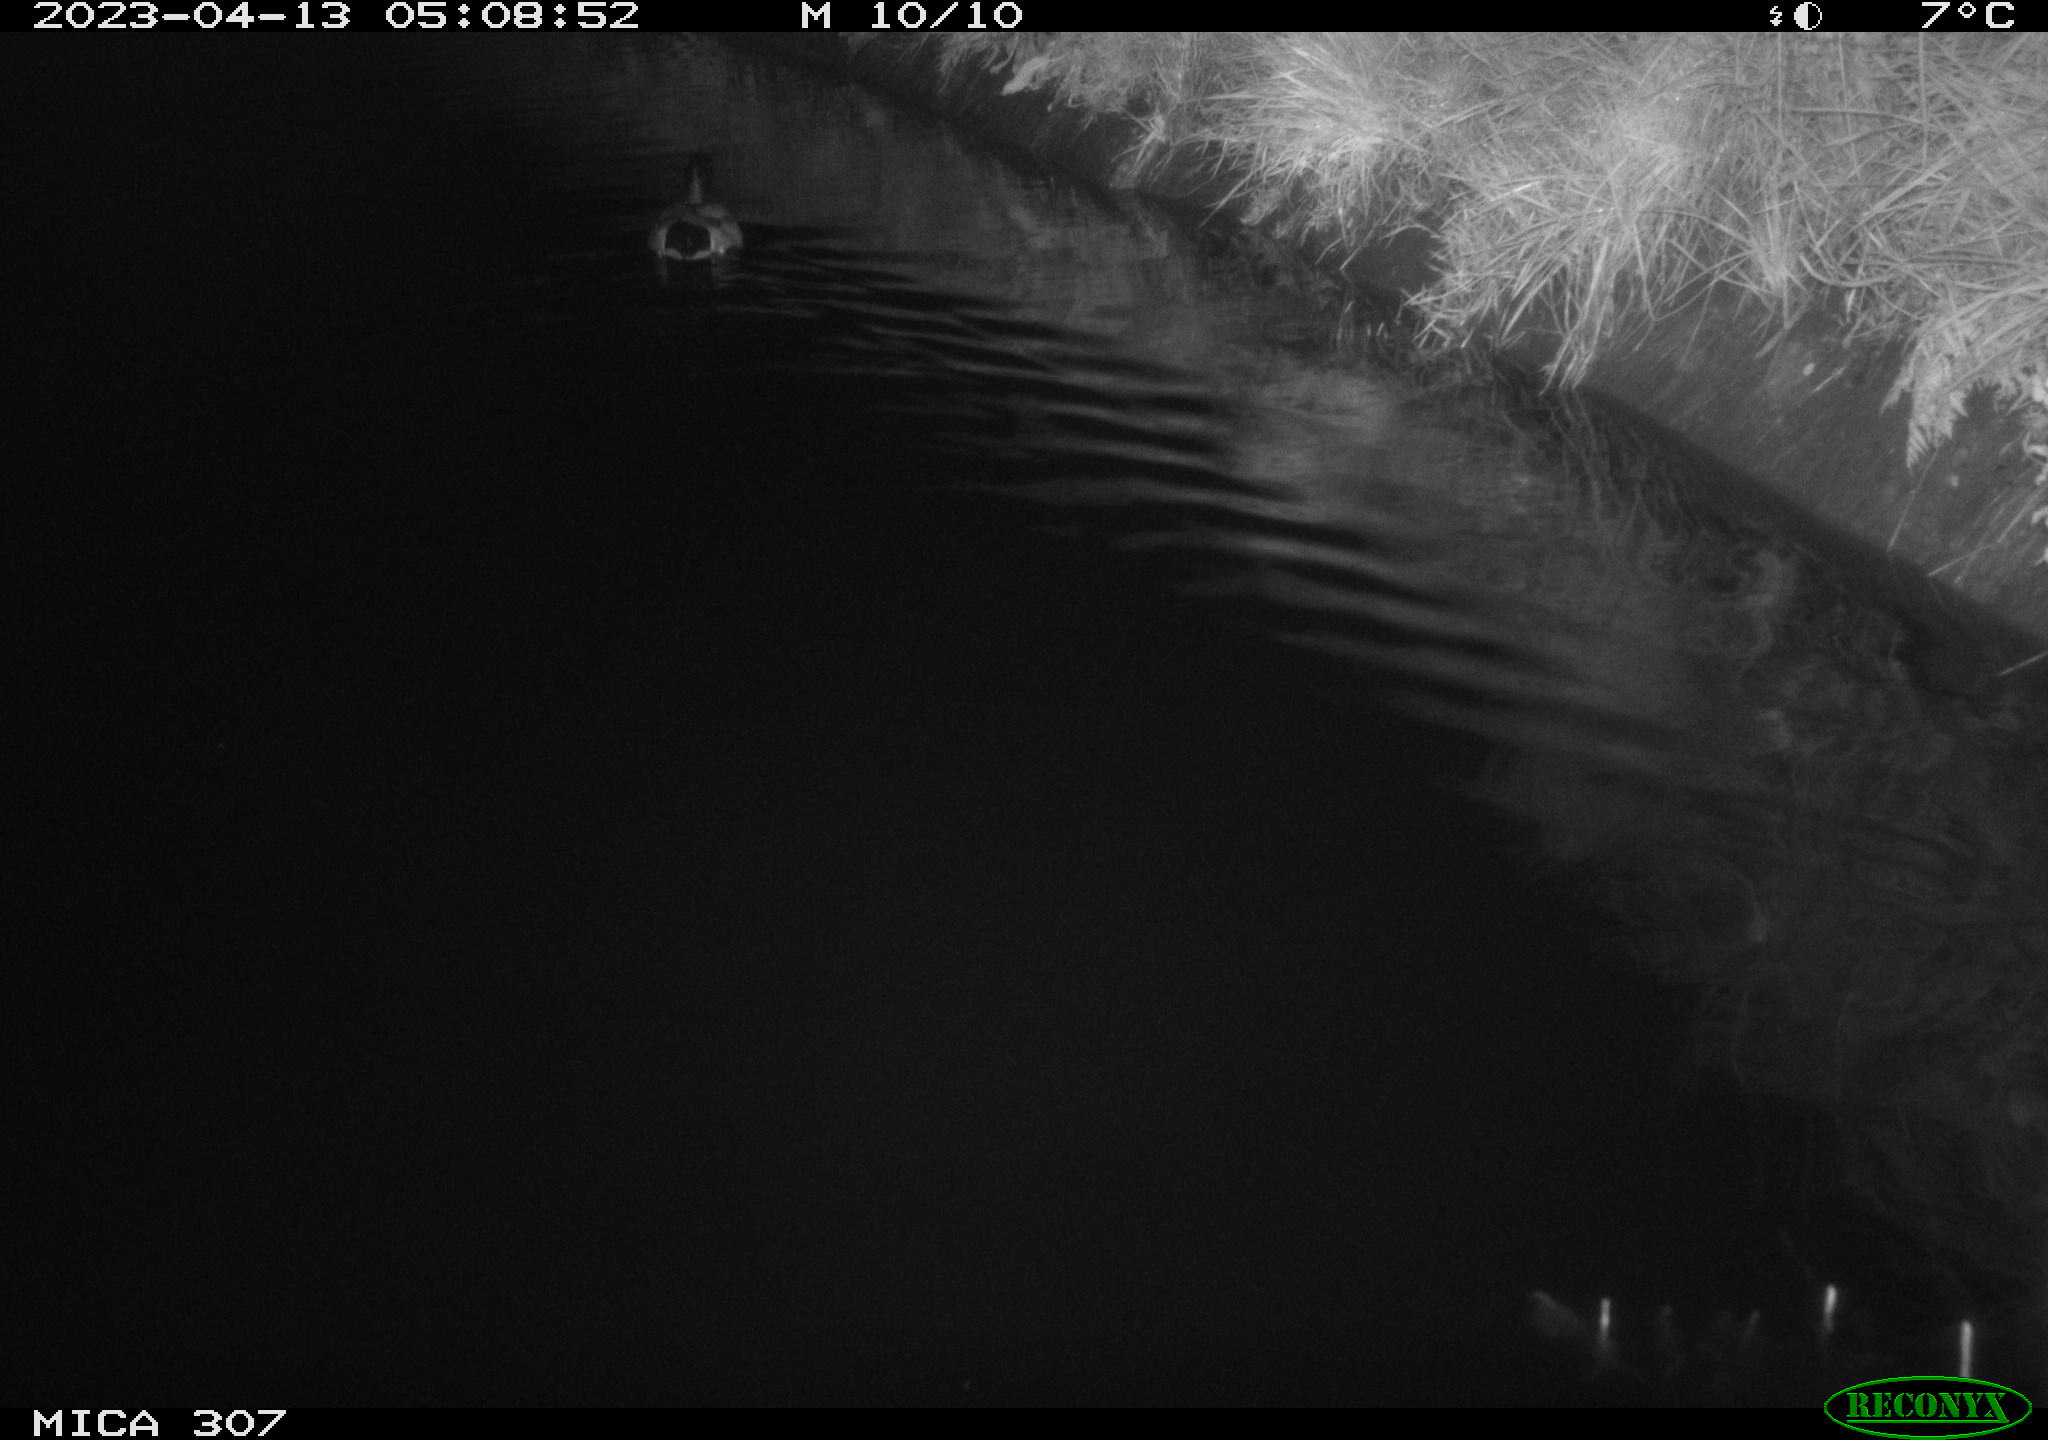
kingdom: Animalia
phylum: Chordata
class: Aves
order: Anseriformes
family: Anatidae
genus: Anas
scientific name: Anas
